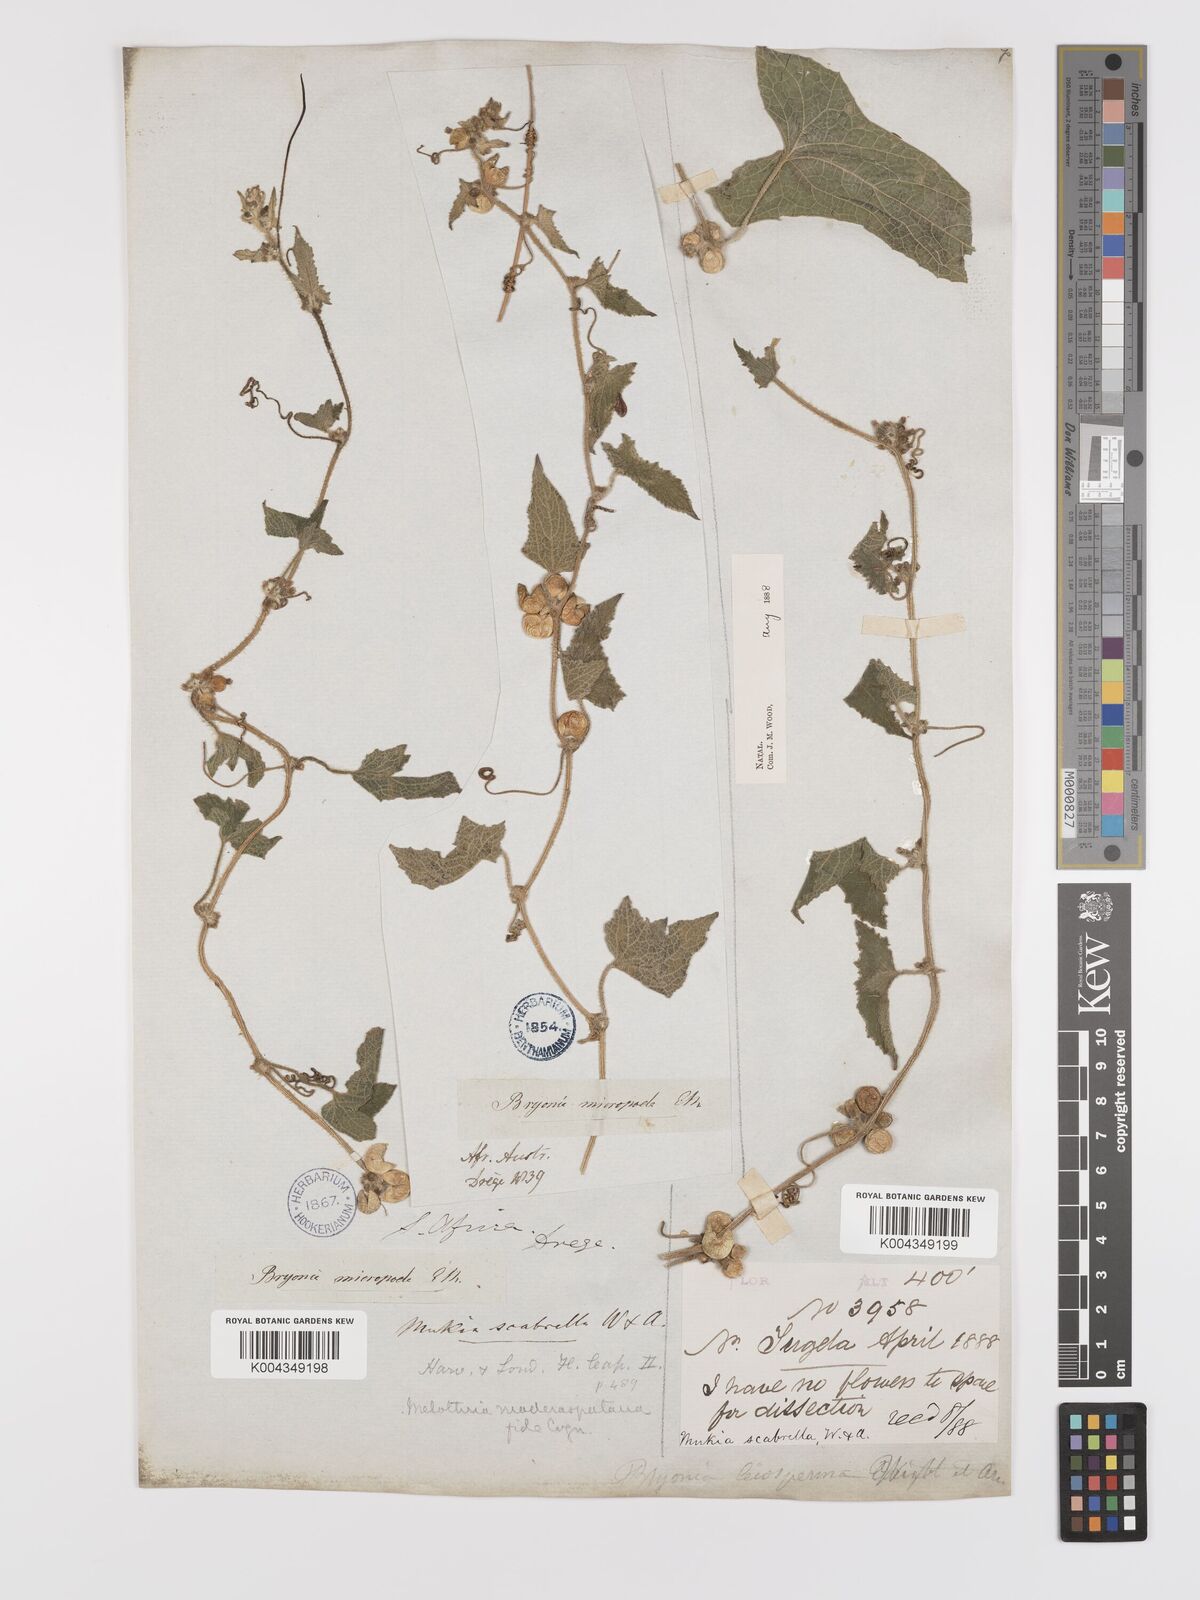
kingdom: Plantae
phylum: Tracheophyta
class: Magnoliopsida
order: Cucurbitales
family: Cucurbitaceae
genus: Cucumis
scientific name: Cucumis maderaspatanus
